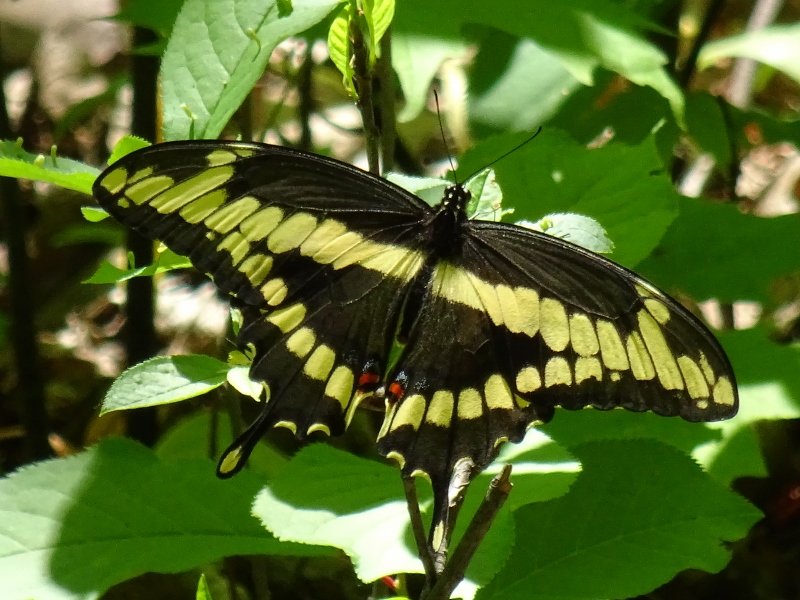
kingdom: Animalia
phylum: Arthropoda
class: Insecta
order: Lepidoptera
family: Papilionidae
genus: Papilio
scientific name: Papilio cresphontes
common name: Eastern Giant Swallowtail
